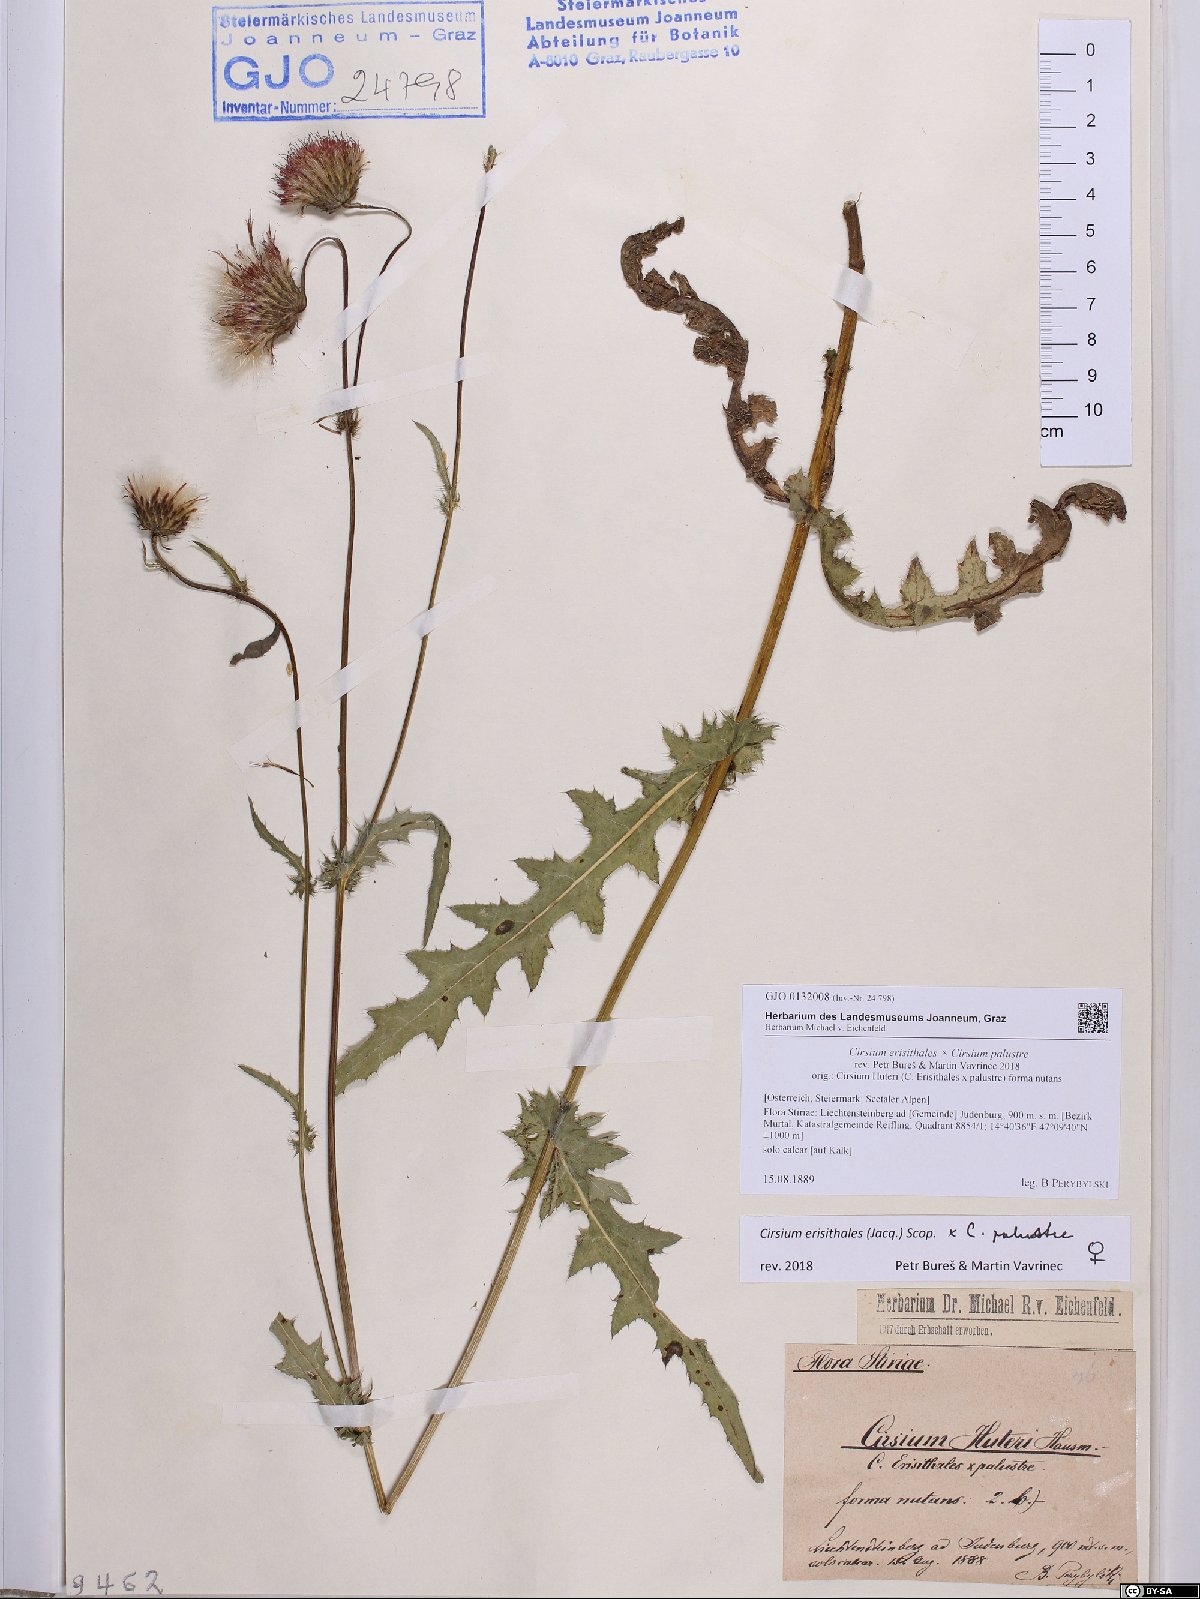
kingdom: Plantae
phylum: Tracheophyta
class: Magnoliopsida
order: Asterales
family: Asteraceae
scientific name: Asteraceae
